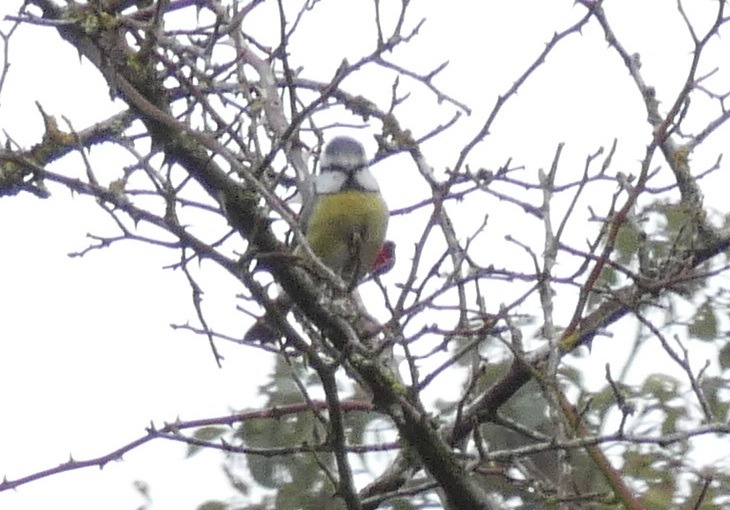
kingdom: Animalia
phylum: Chordata
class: Aves
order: Passeriformes
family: Paridae
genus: Cyanistes
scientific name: Cyanistes caeruleus
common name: Blåmejse
